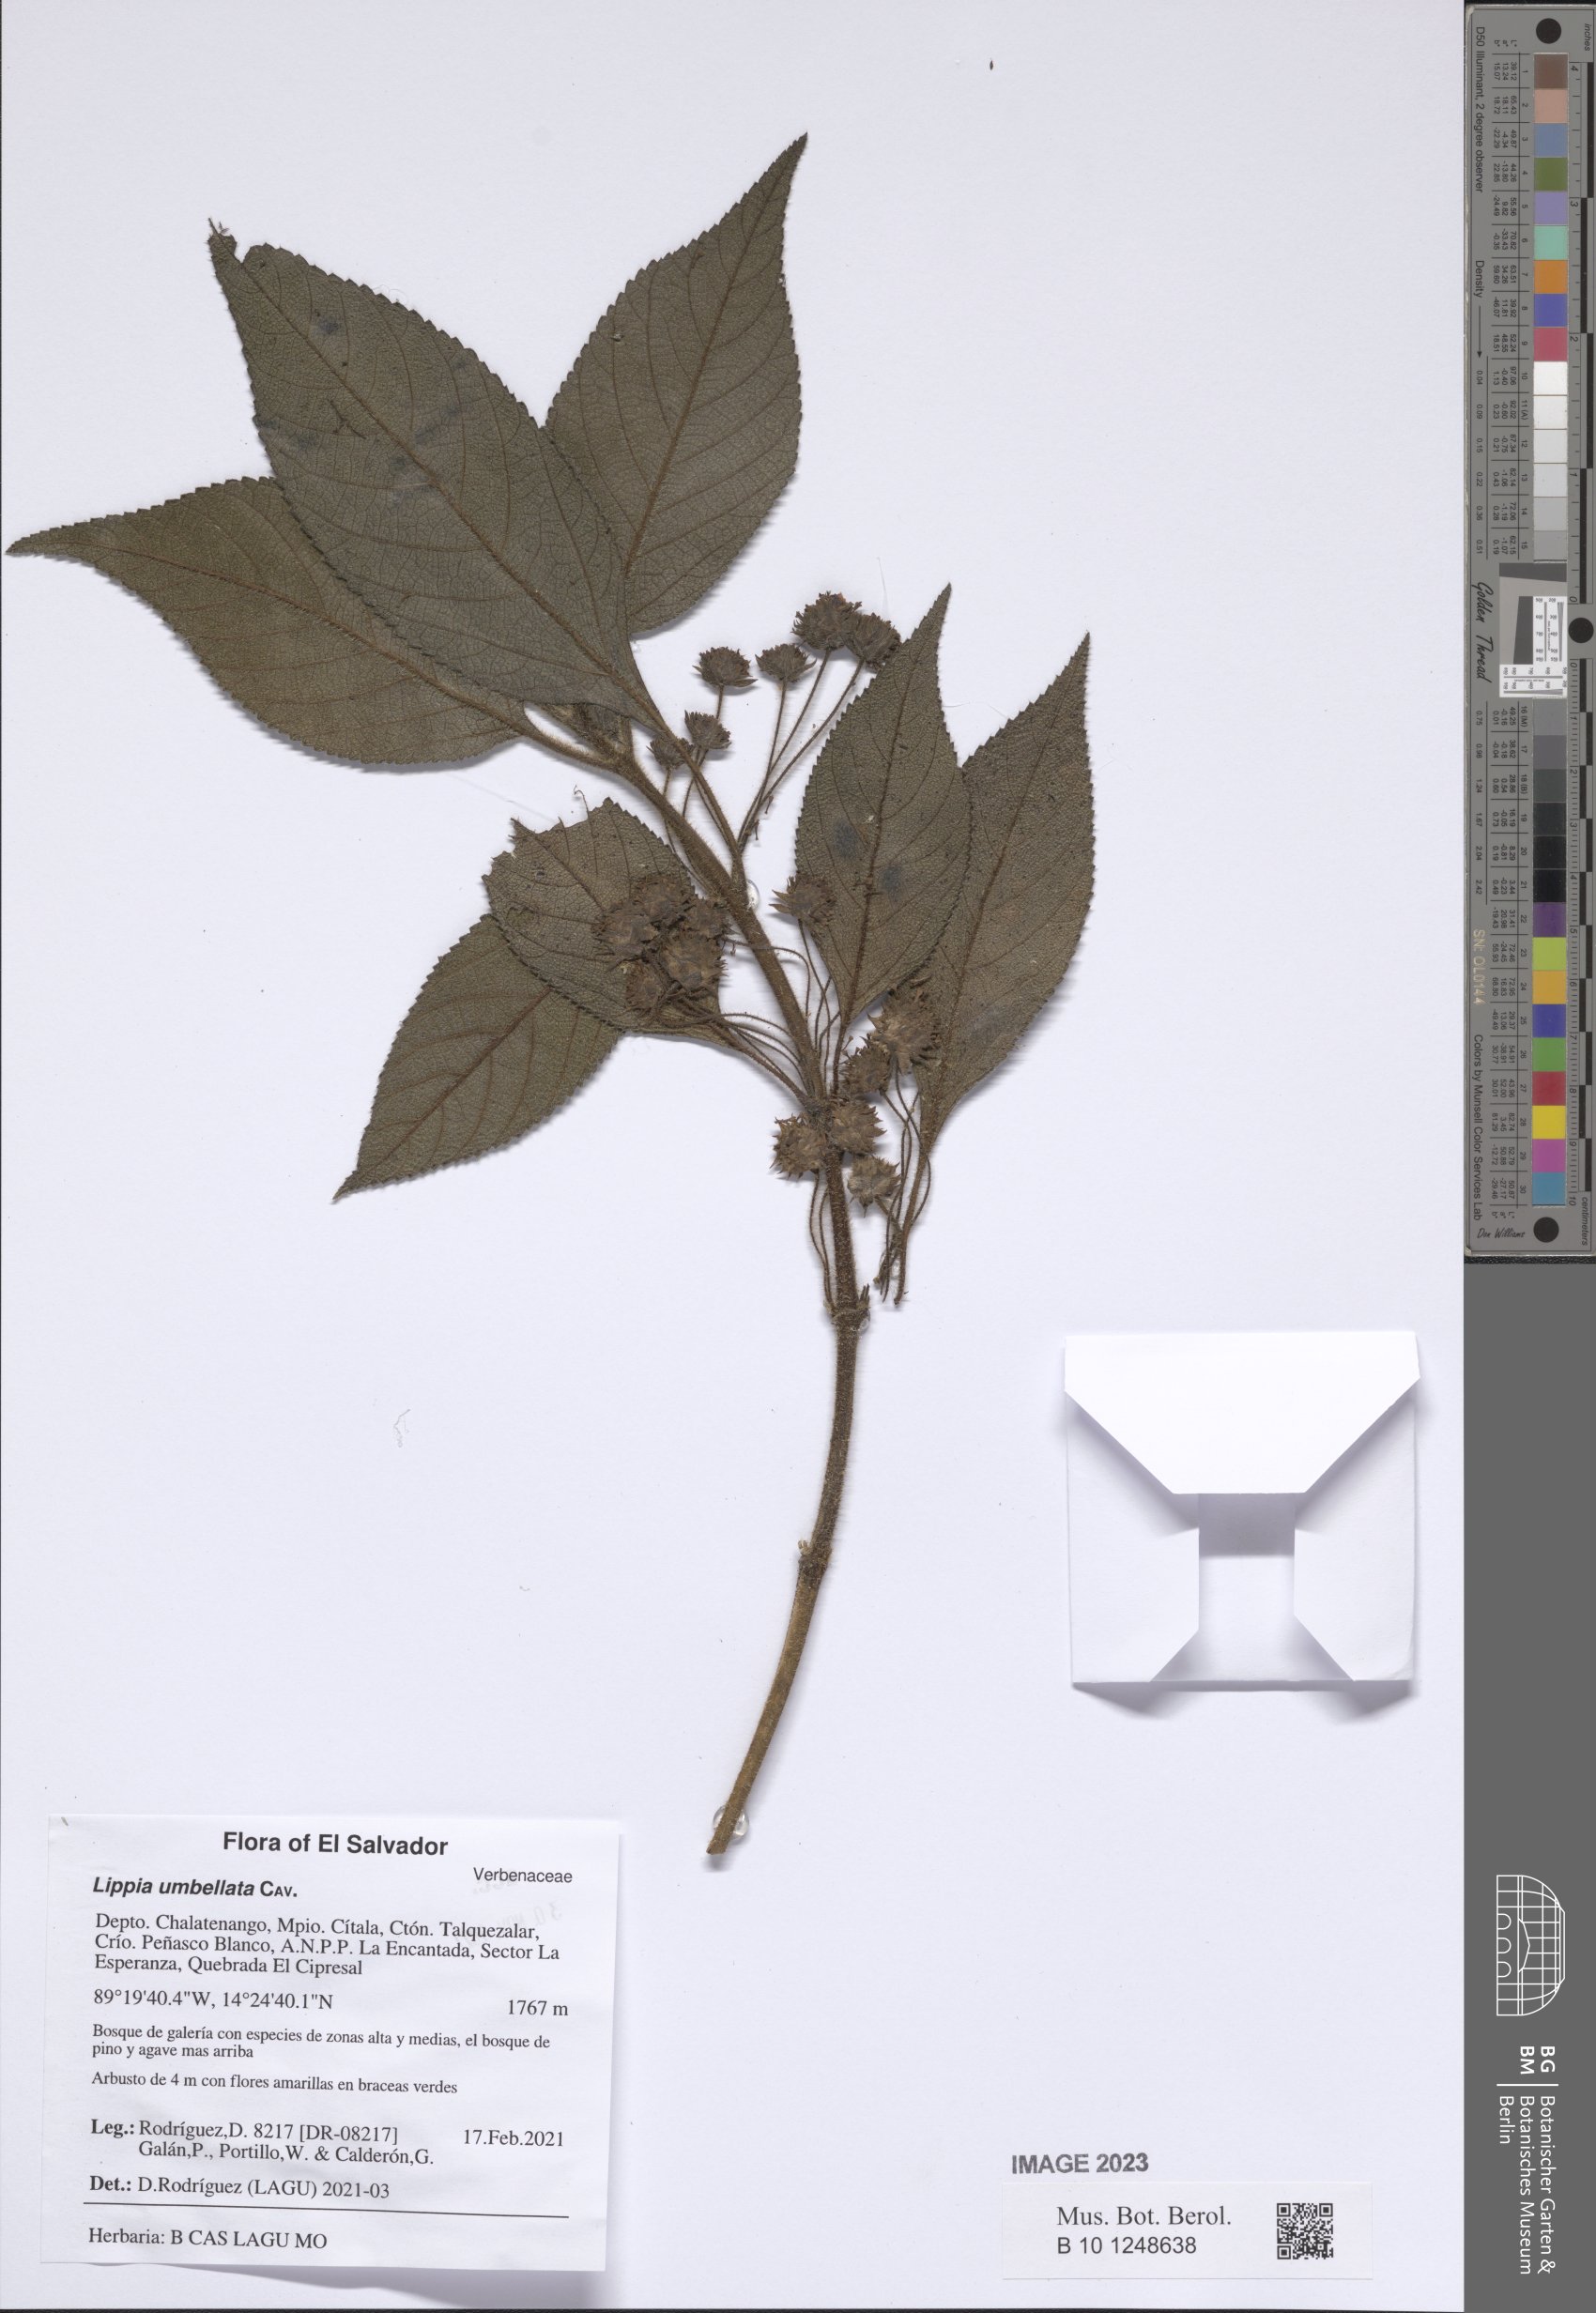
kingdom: Plantae
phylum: Tracheophyta
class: Magnoliopsida
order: Lamiales
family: Verbenaceae
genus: Lippia
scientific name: Lippia umbellata
